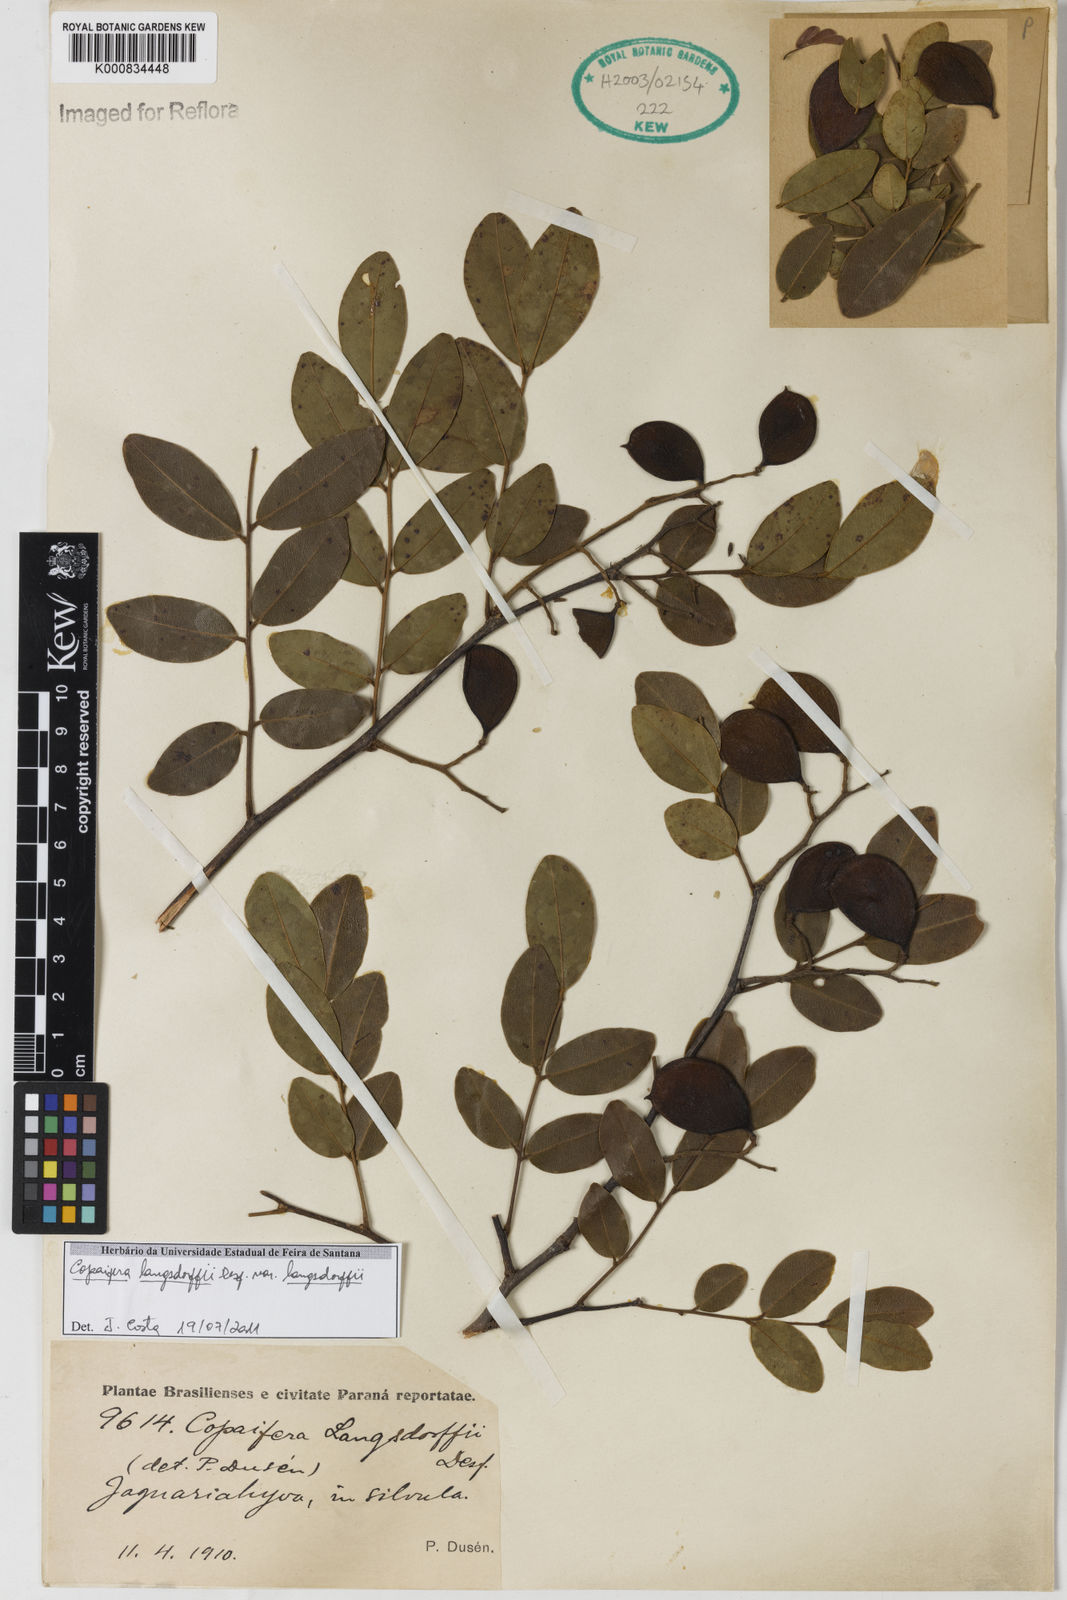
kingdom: Plantae
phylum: Tracheophyta
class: Magnoliopsida
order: Fabales
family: Fabaceae
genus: Copaifera
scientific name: Copaifera langsdorffii
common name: Brazilian diesel tree
